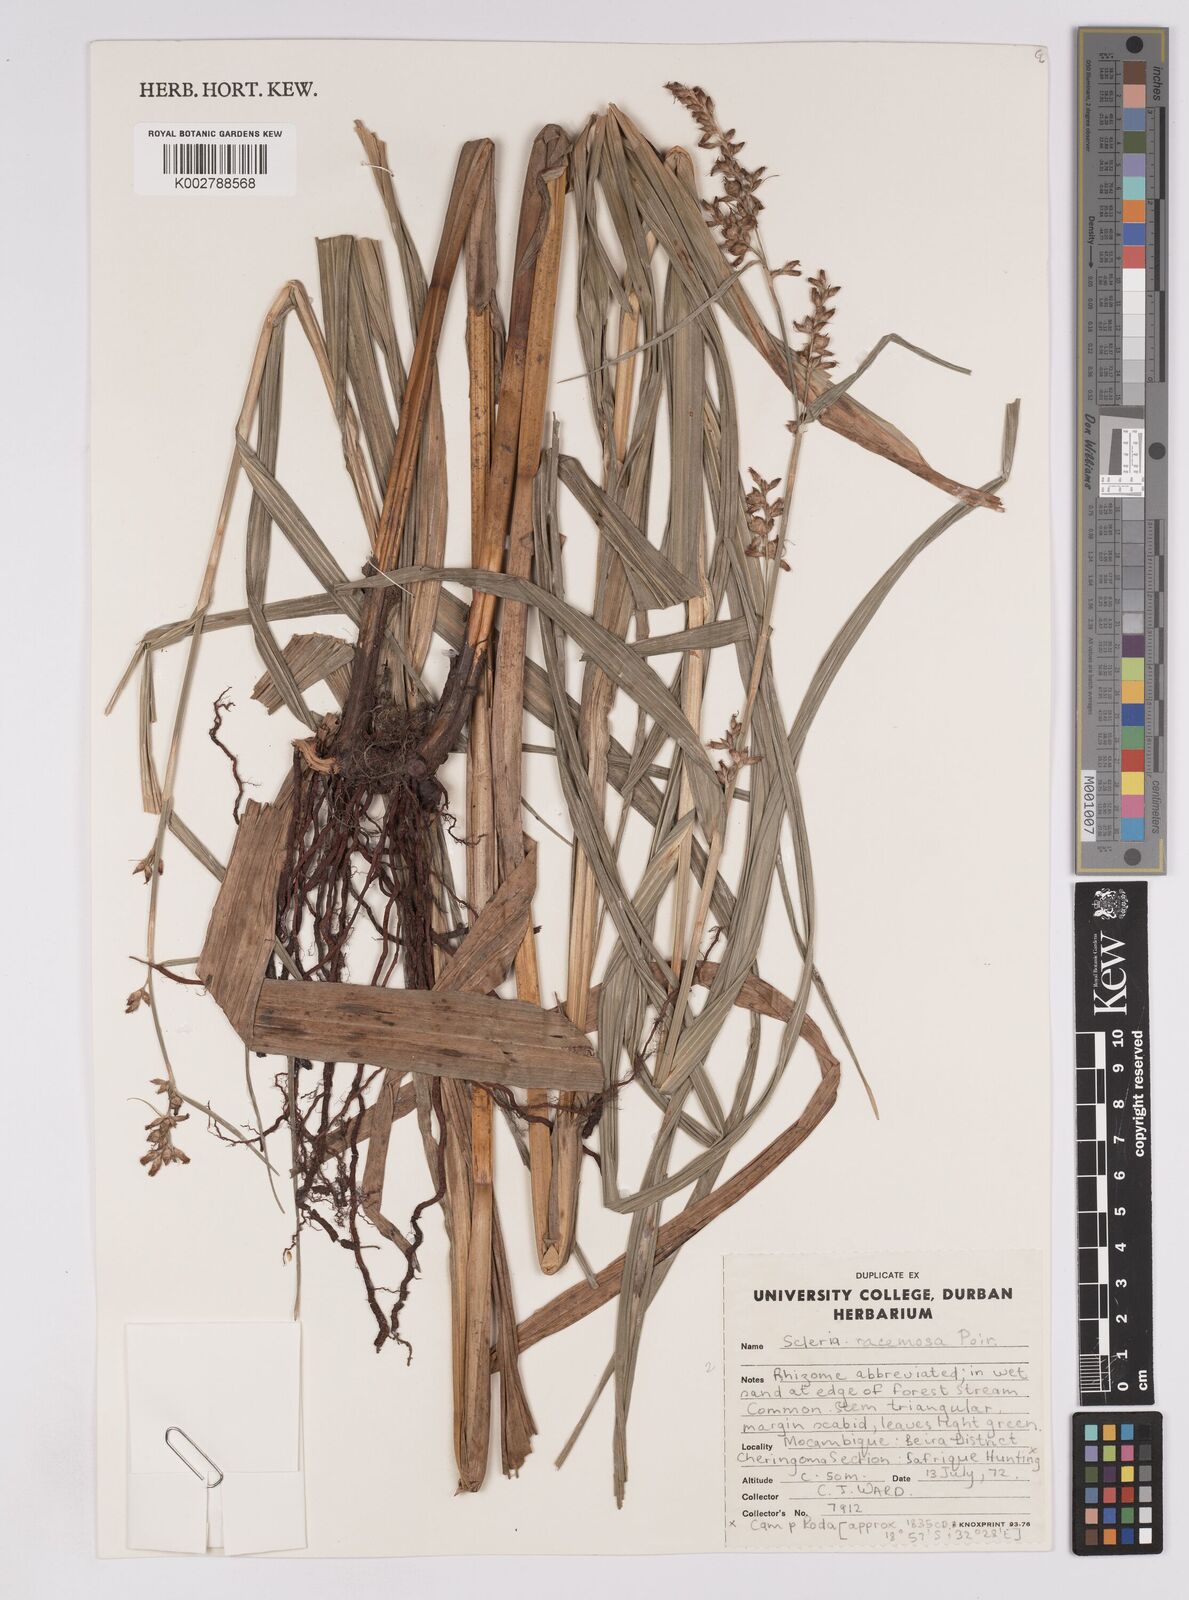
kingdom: Plantae
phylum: Tracheophyta
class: Liliopsida
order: Poales
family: Cyperaceae
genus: Scleria
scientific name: Scleria racemosa
